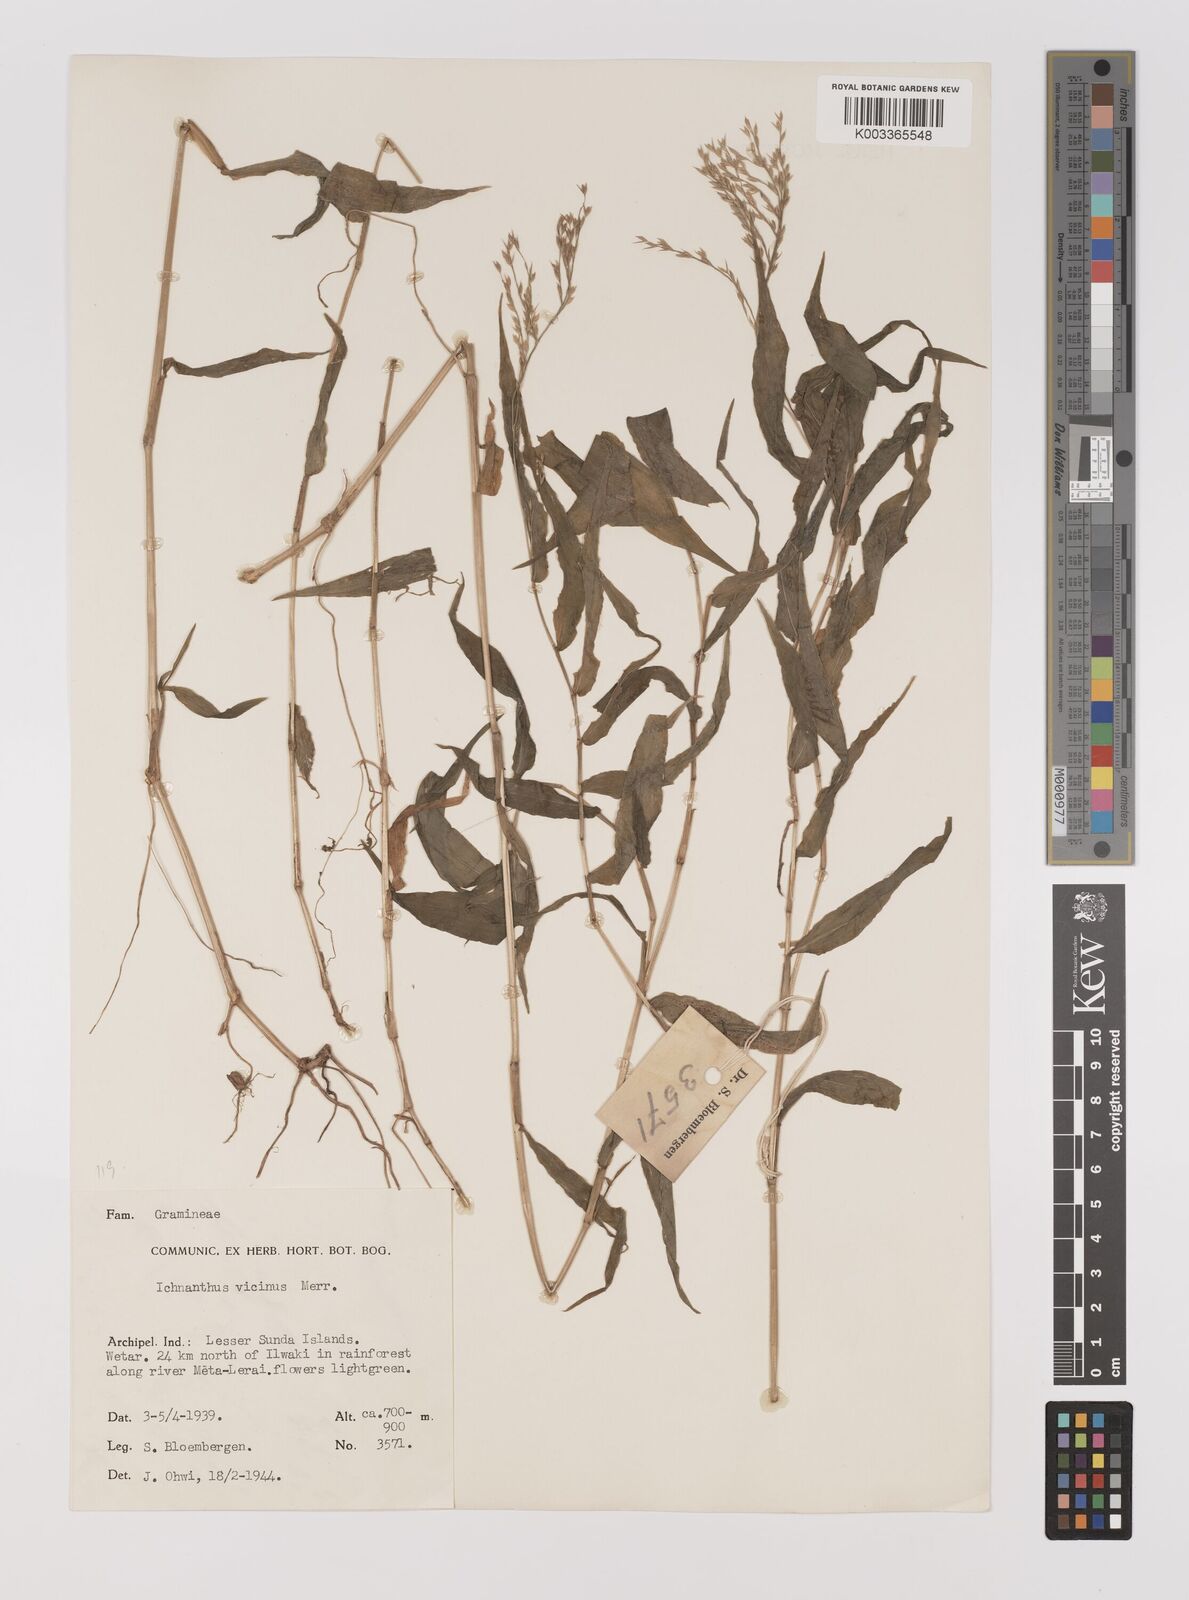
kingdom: Plantae
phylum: Tracheophyta
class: Liliopsida
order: Poales
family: Poaceae
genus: Ichnanthus
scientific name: Ichnanthus pallens
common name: Water grass
